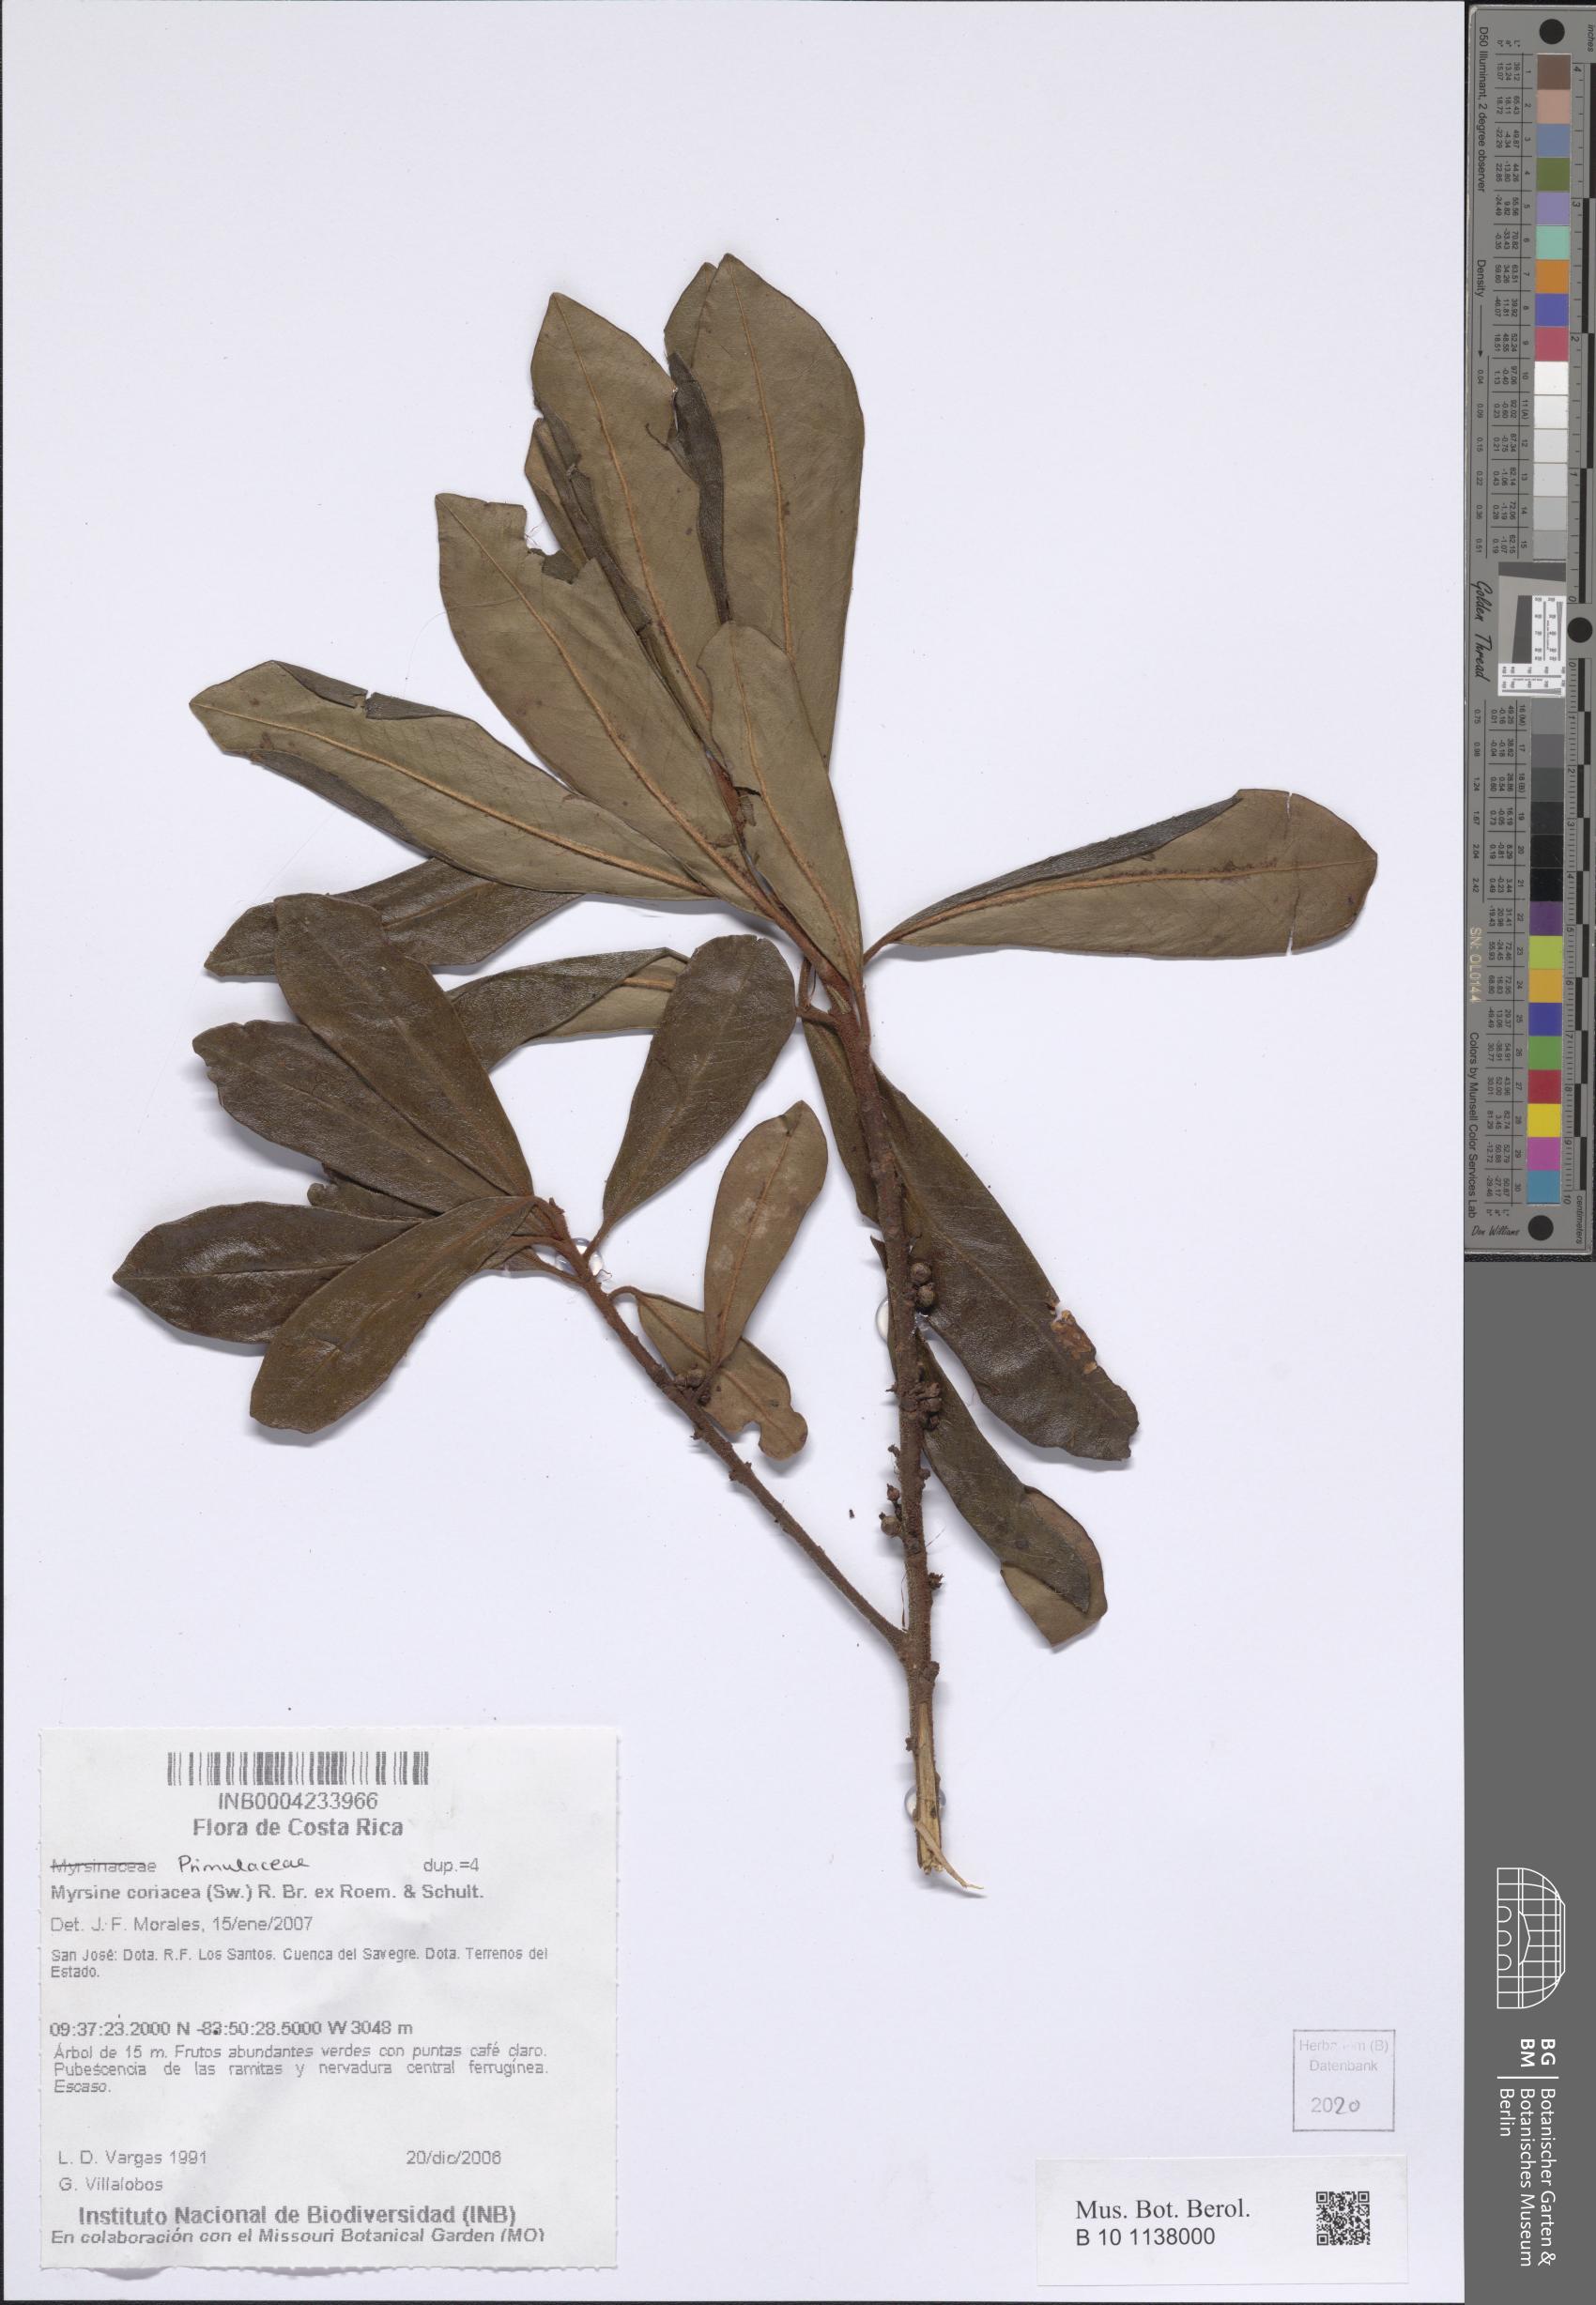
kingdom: Plantae
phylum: Tracheophyta
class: Magnoliopsida
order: Ericales
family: Primulaceae
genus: Myrsine
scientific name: Myrsine coriacea
